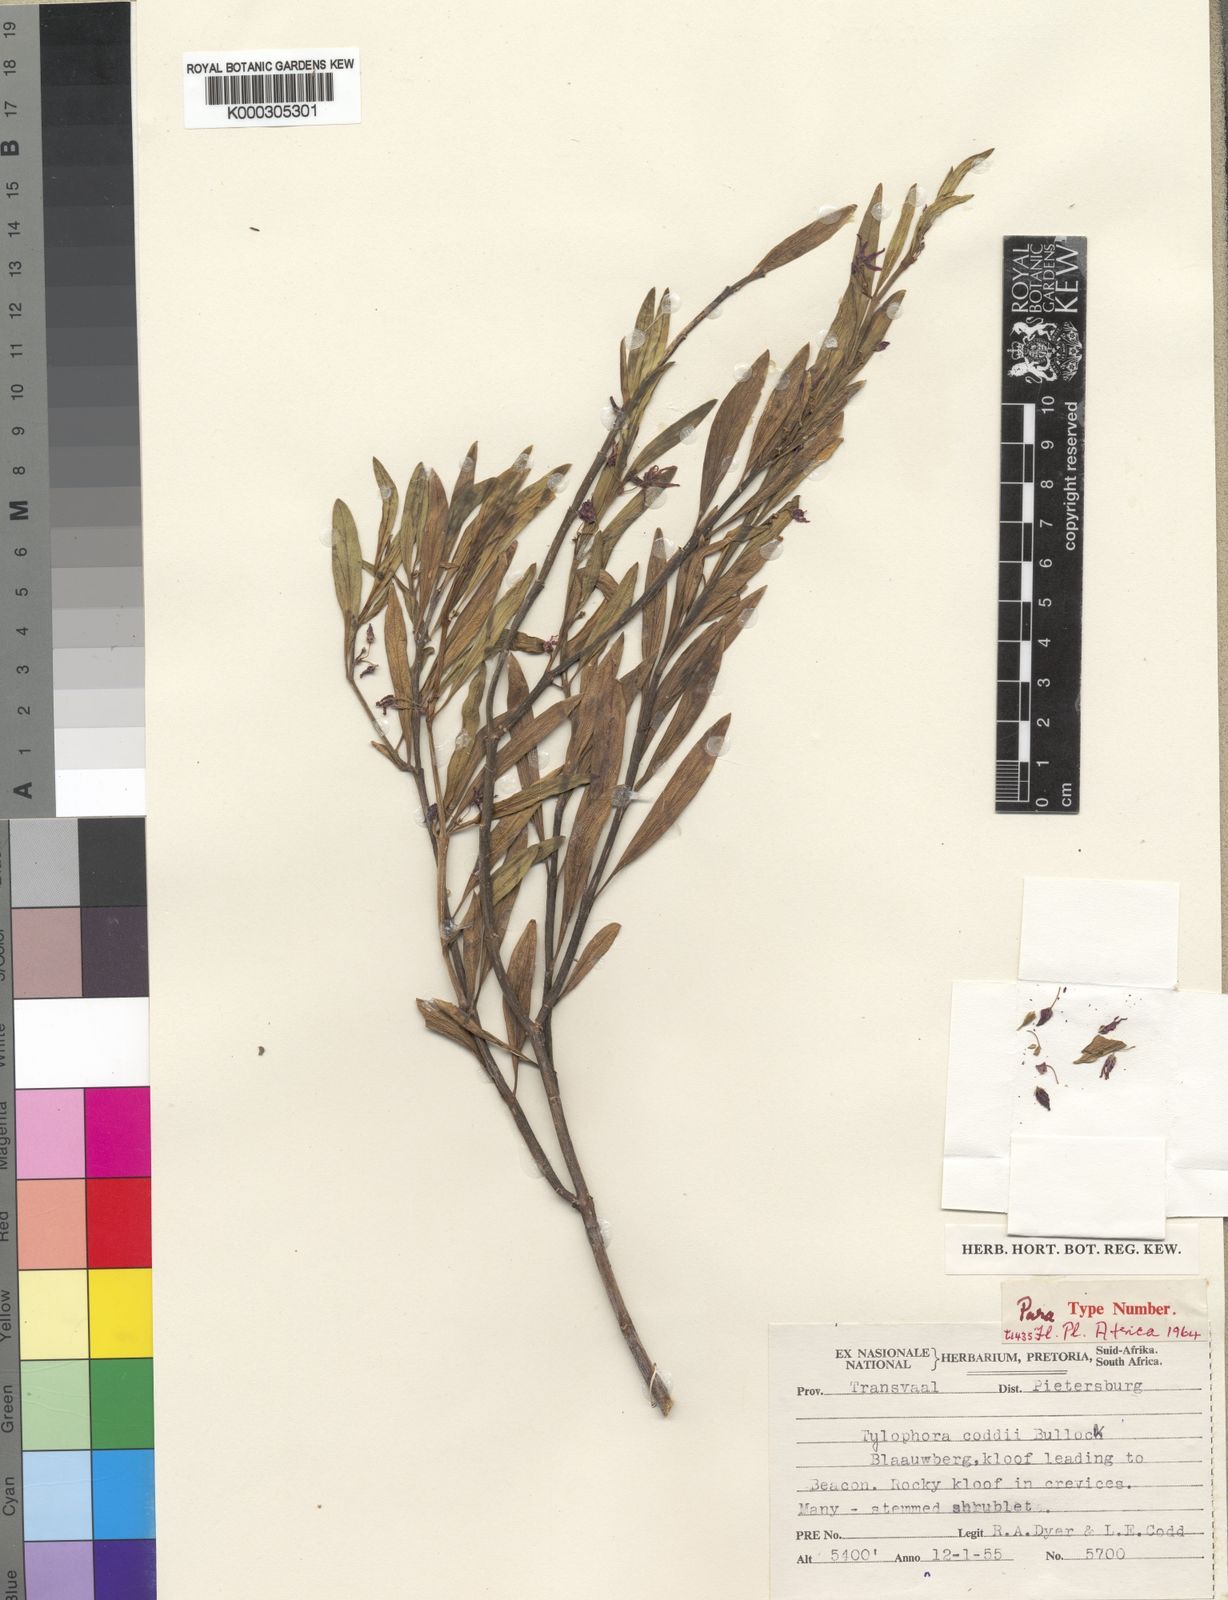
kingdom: Plantae
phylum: Tracheophyta
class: Magnoliopsida
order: Gentianales
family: Apocynaceae
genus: Vincetoxicum
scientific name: Vincetoxicum coddii
